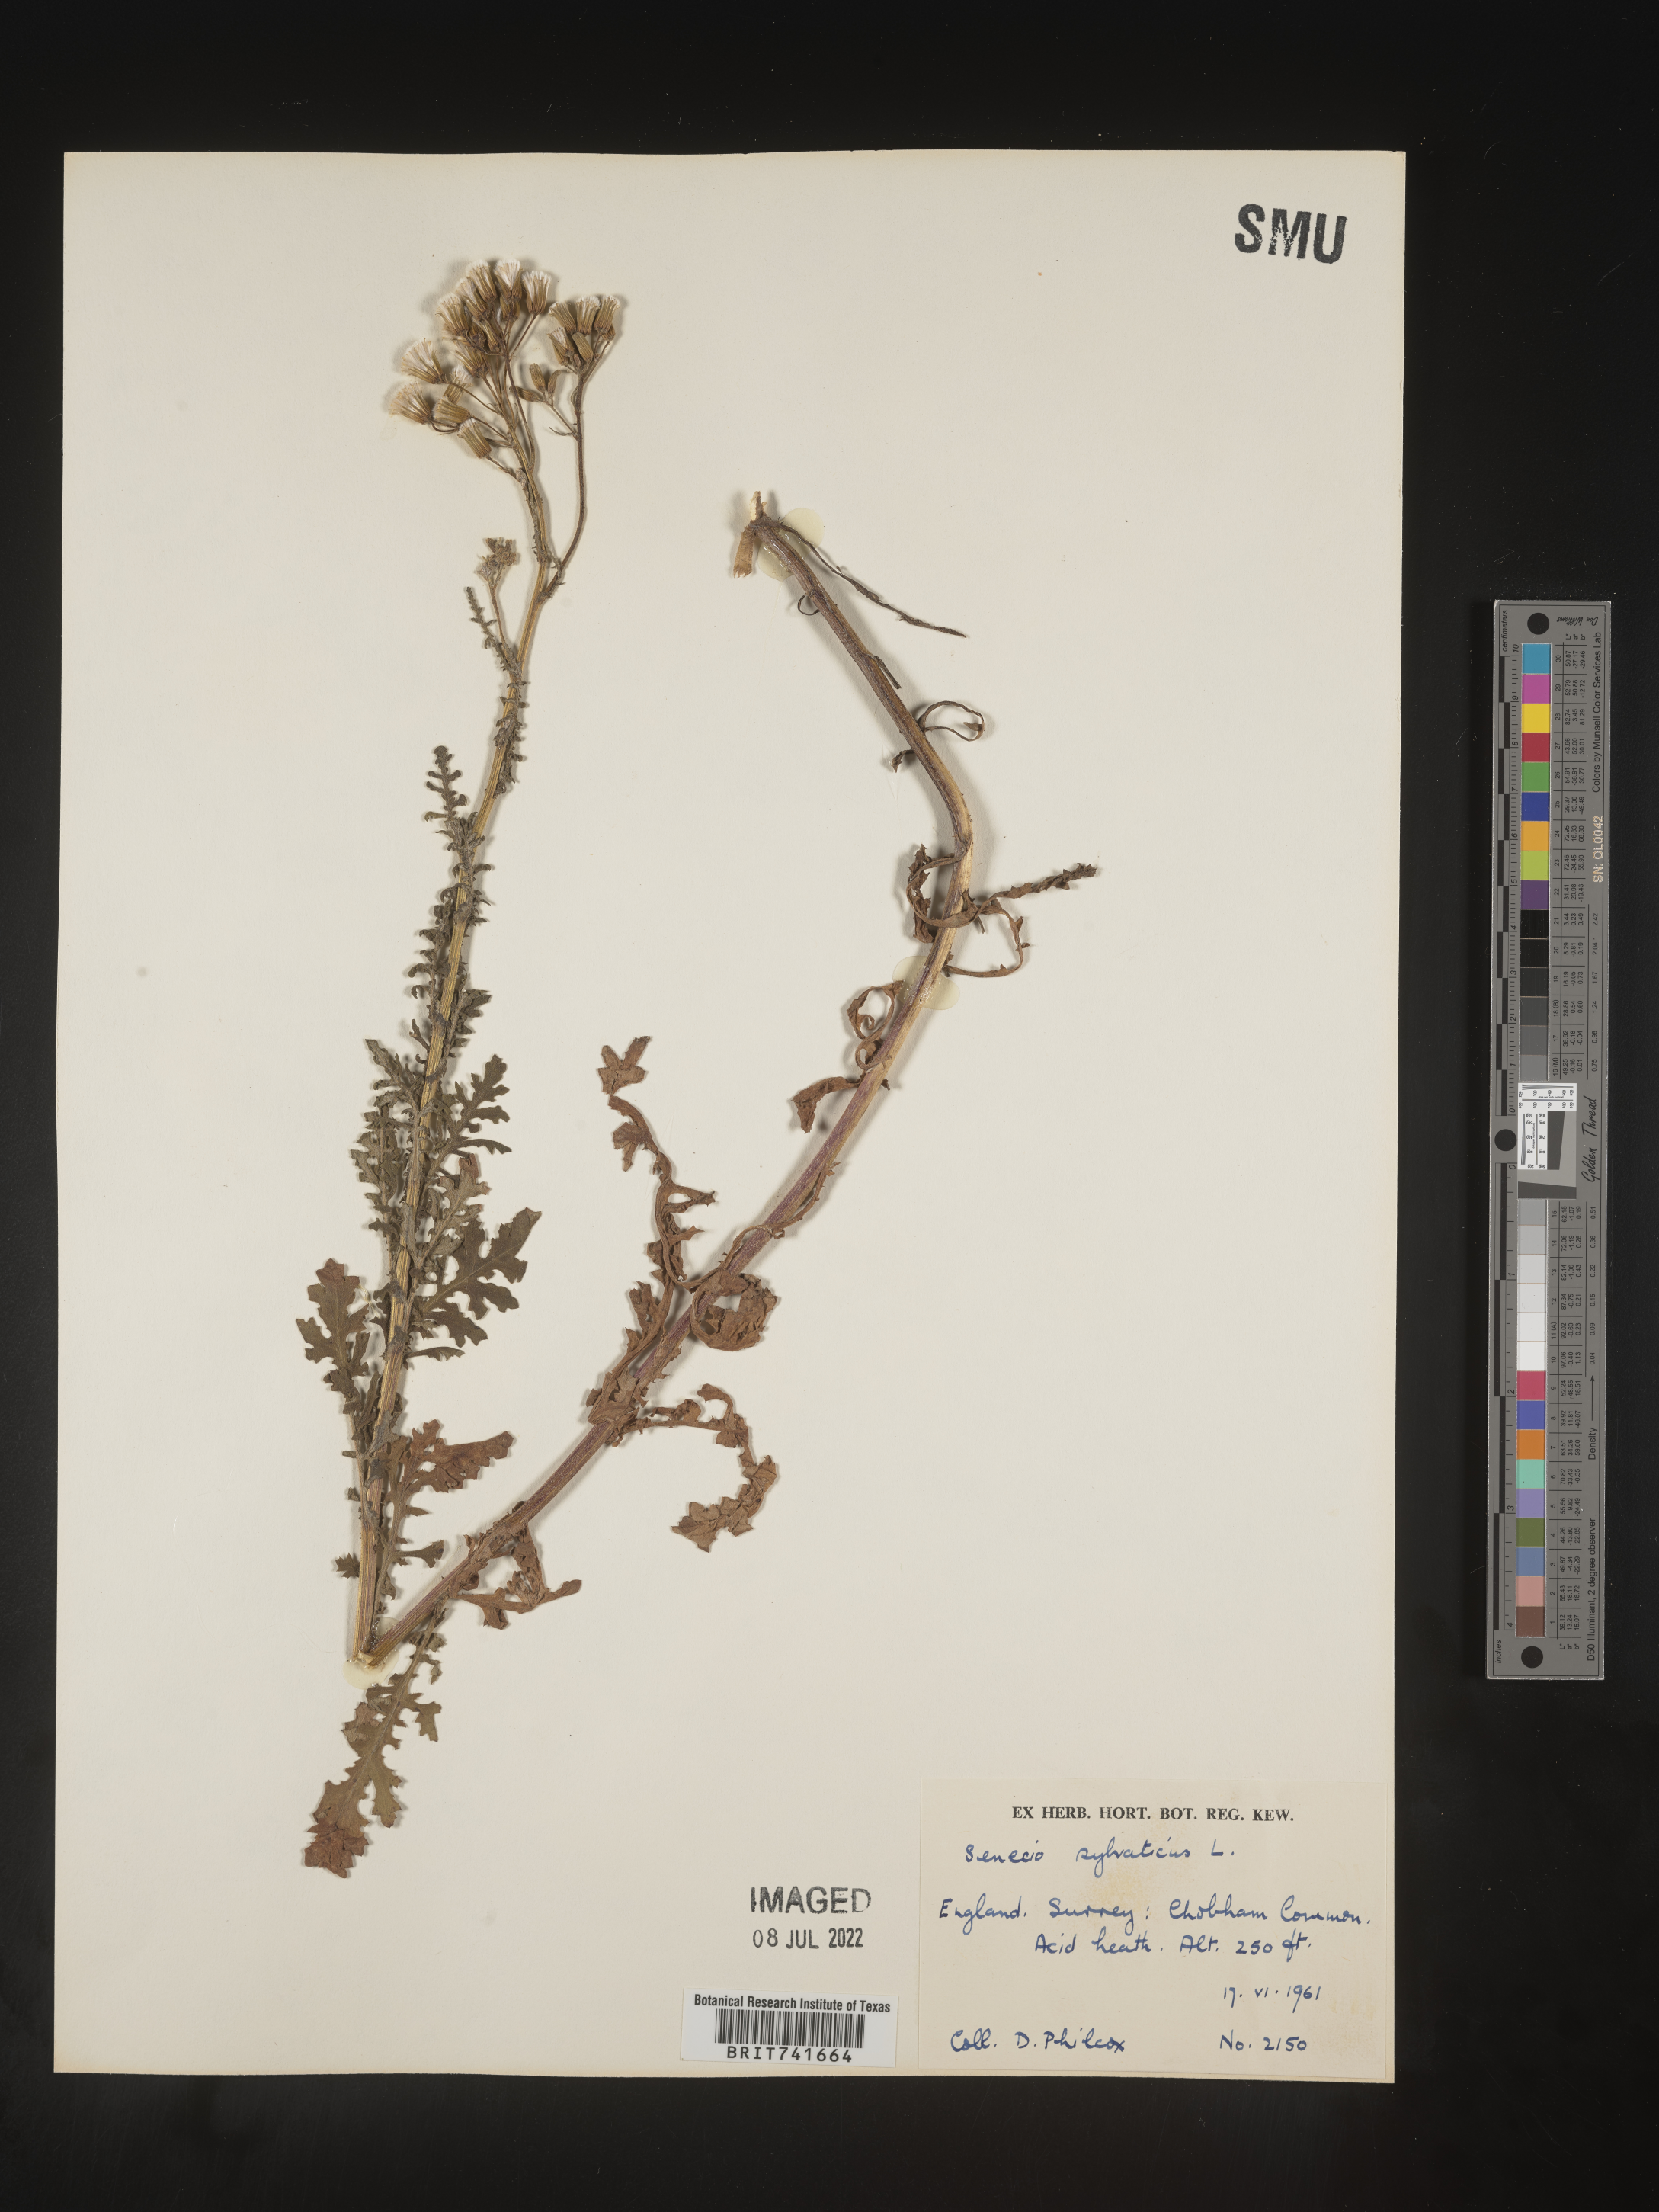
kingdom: Plantae
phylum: Tracheophyta
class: Magnoliopsida
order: Asterales
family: Asteraceae
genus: Senecio
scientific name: Senecio
